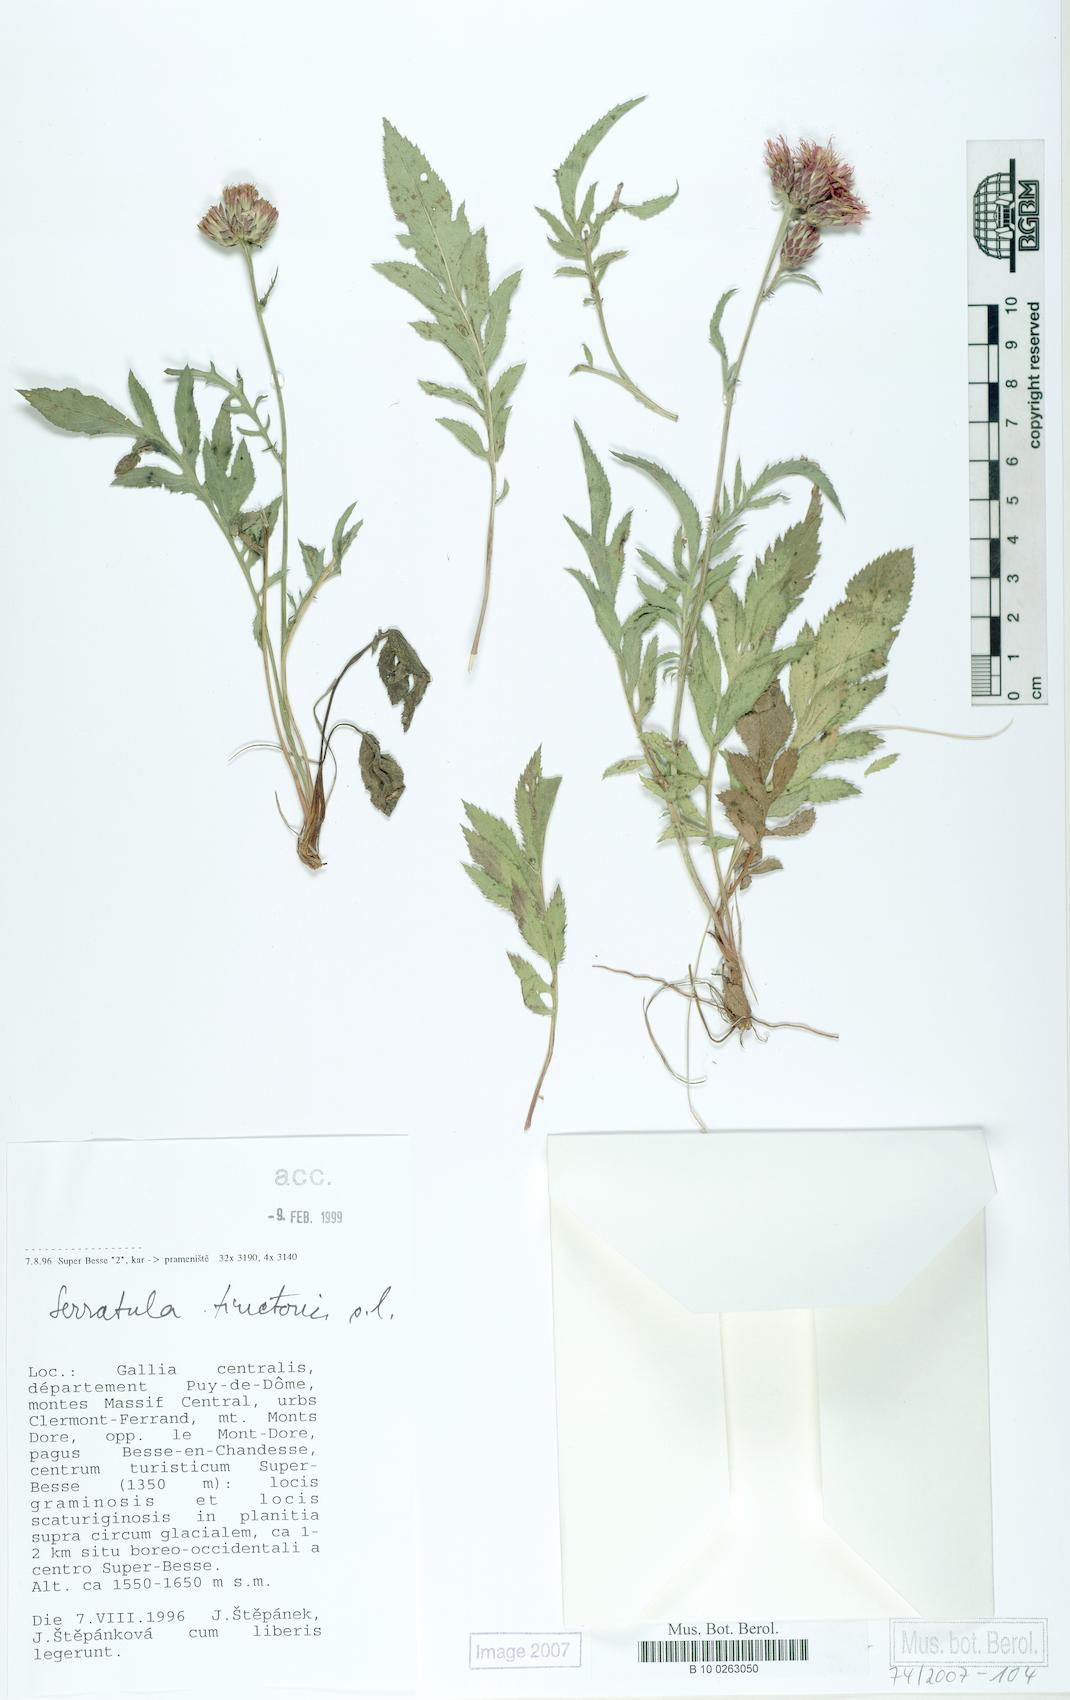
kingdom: Plantae
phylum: Tracheophyta
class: Magnoliopsida
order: Asterales
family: Asteraceae
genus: Serratula
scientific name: Serratula tinctoria
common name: Saw-wort
